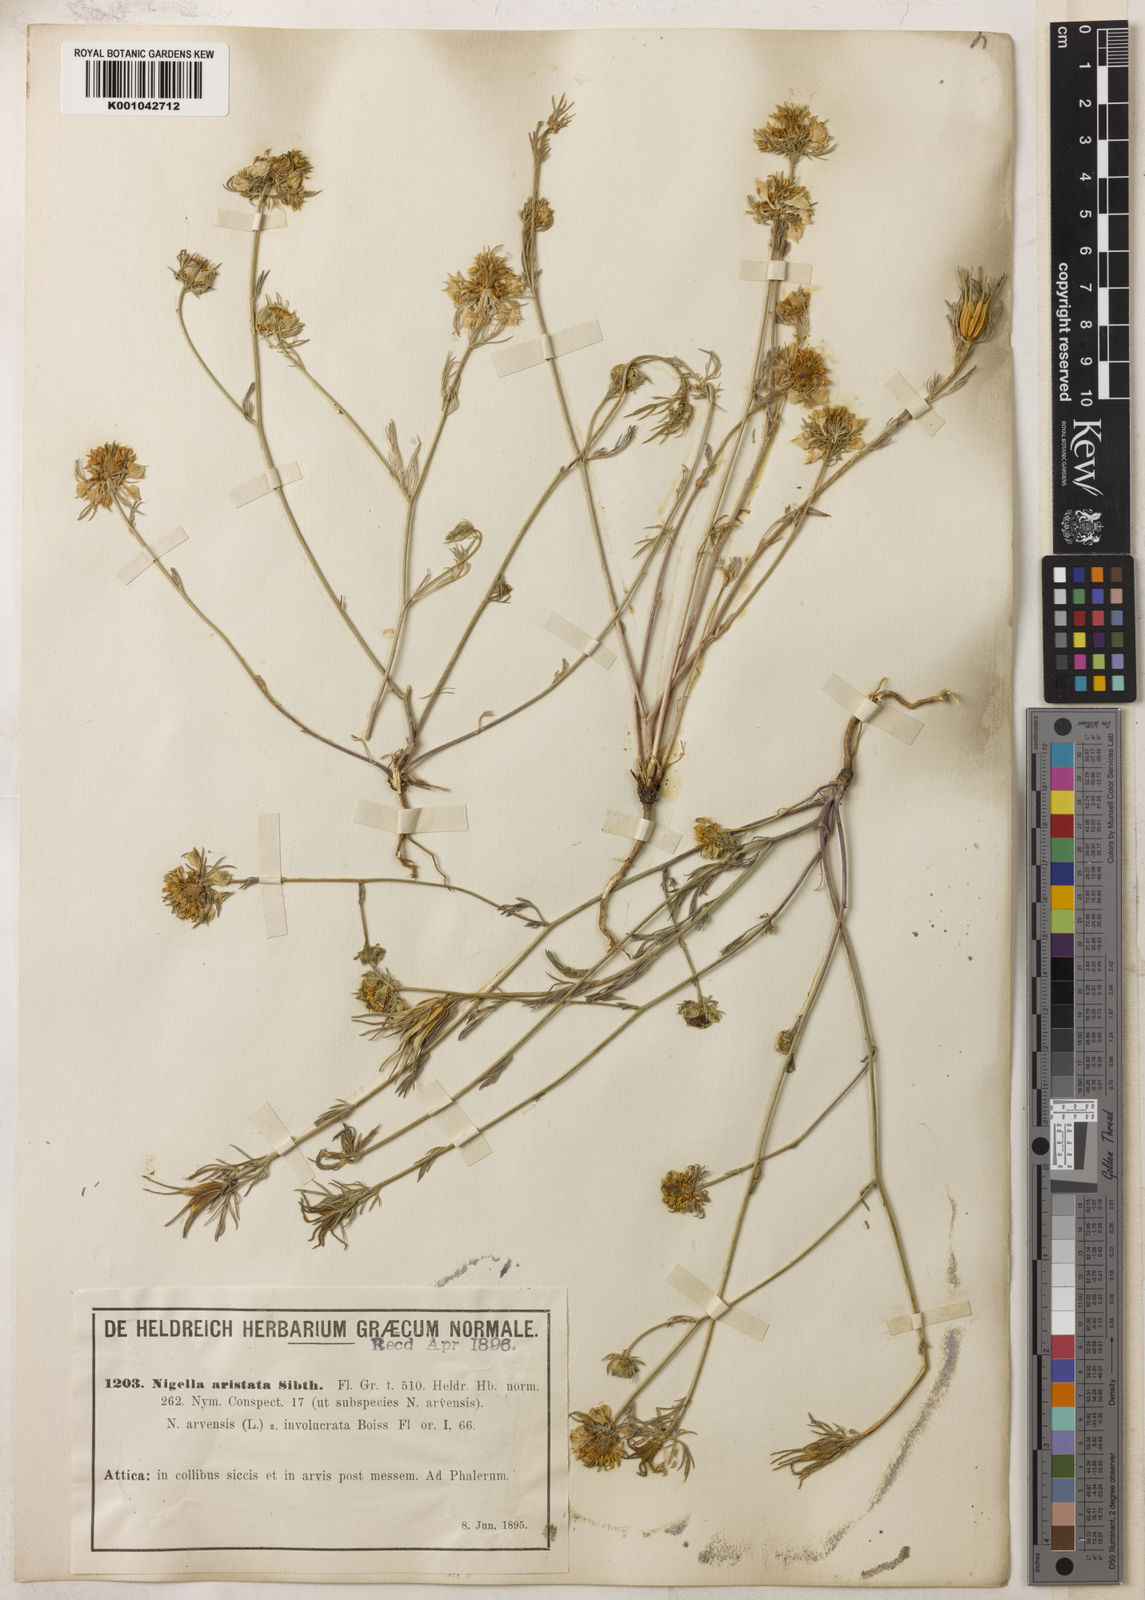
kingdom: Plantae
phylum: Tracheophyta
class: Magnoliopsida
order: Ranunculales
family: Ranunculaceae
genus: Nigella
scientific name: Nigella arvensis
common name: Wild fennel-flower
